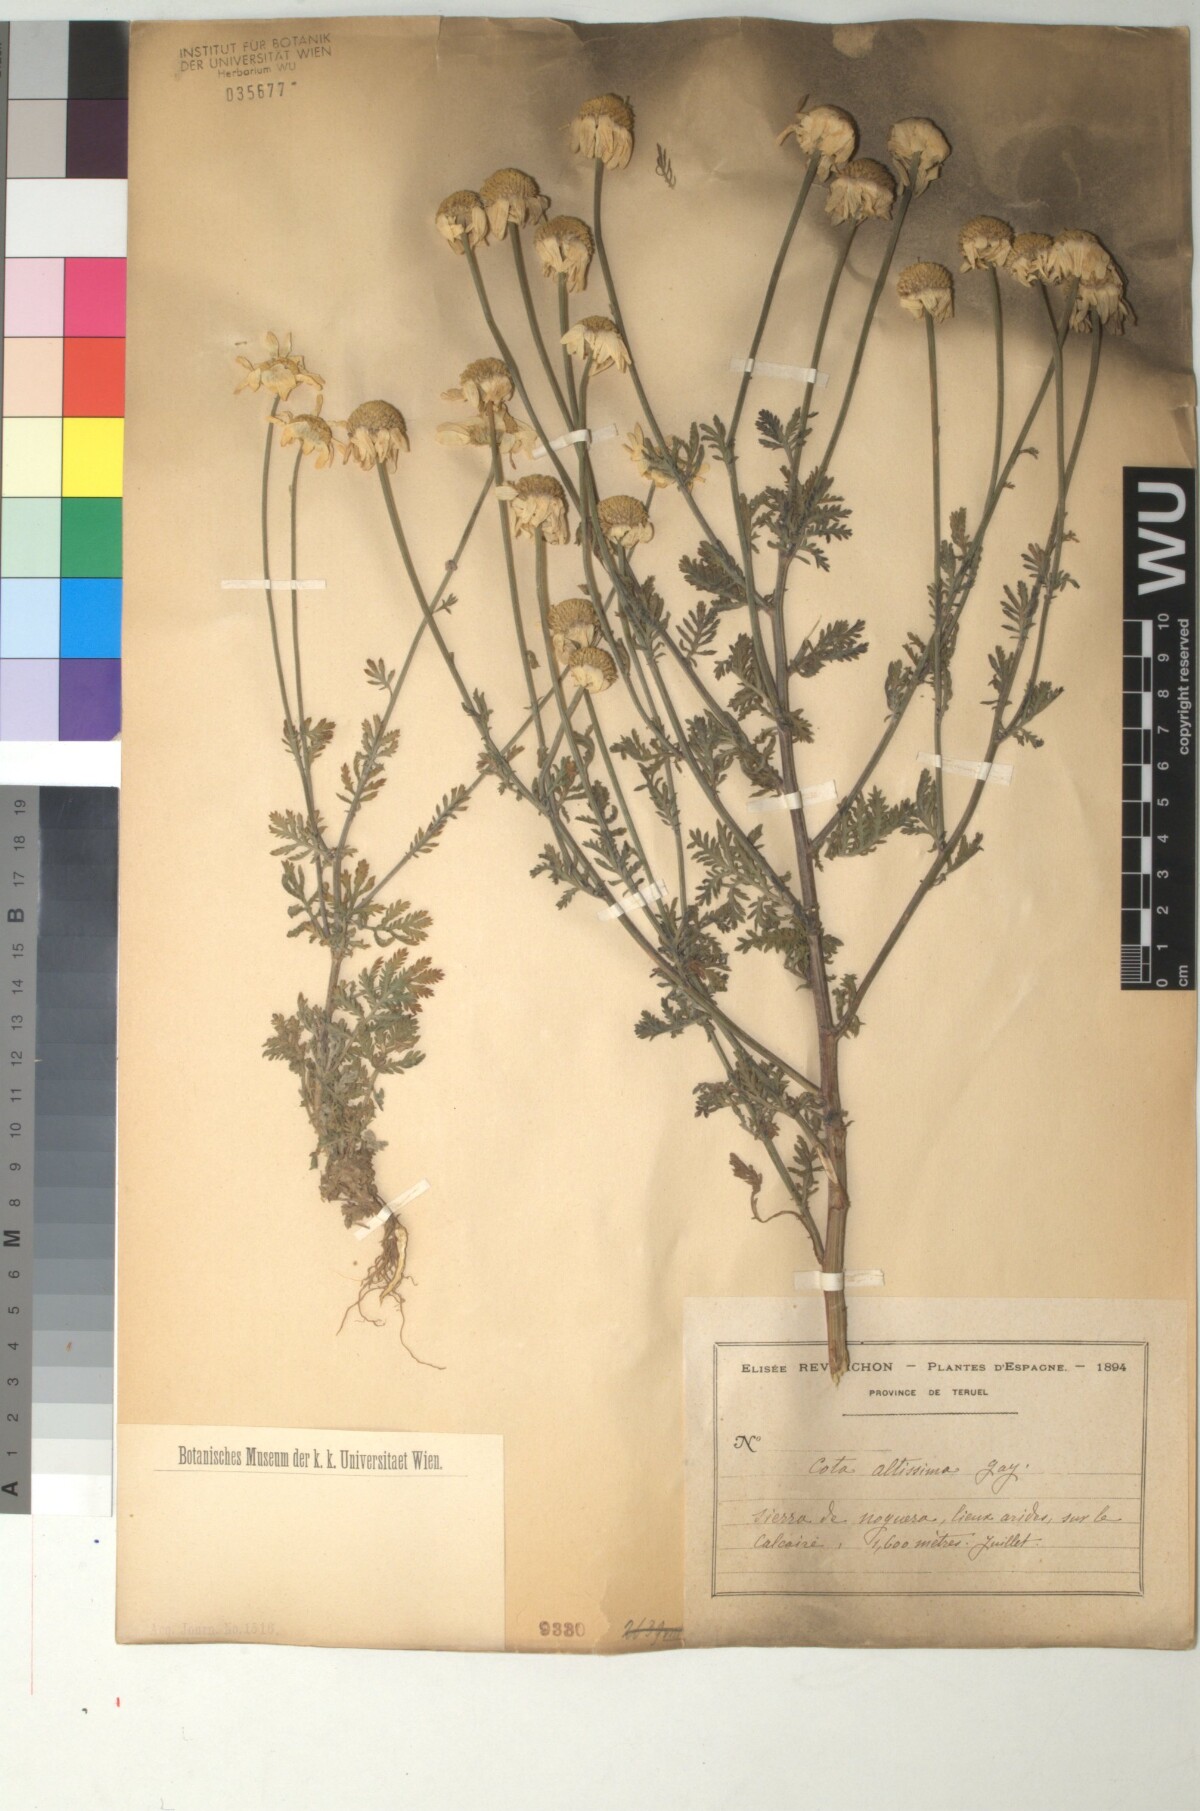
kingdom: Plantae
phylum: Tracheophyta
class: Magnoliopsida
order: Asterales
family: Asteraceae
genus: Cota
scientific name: Cota altissima
